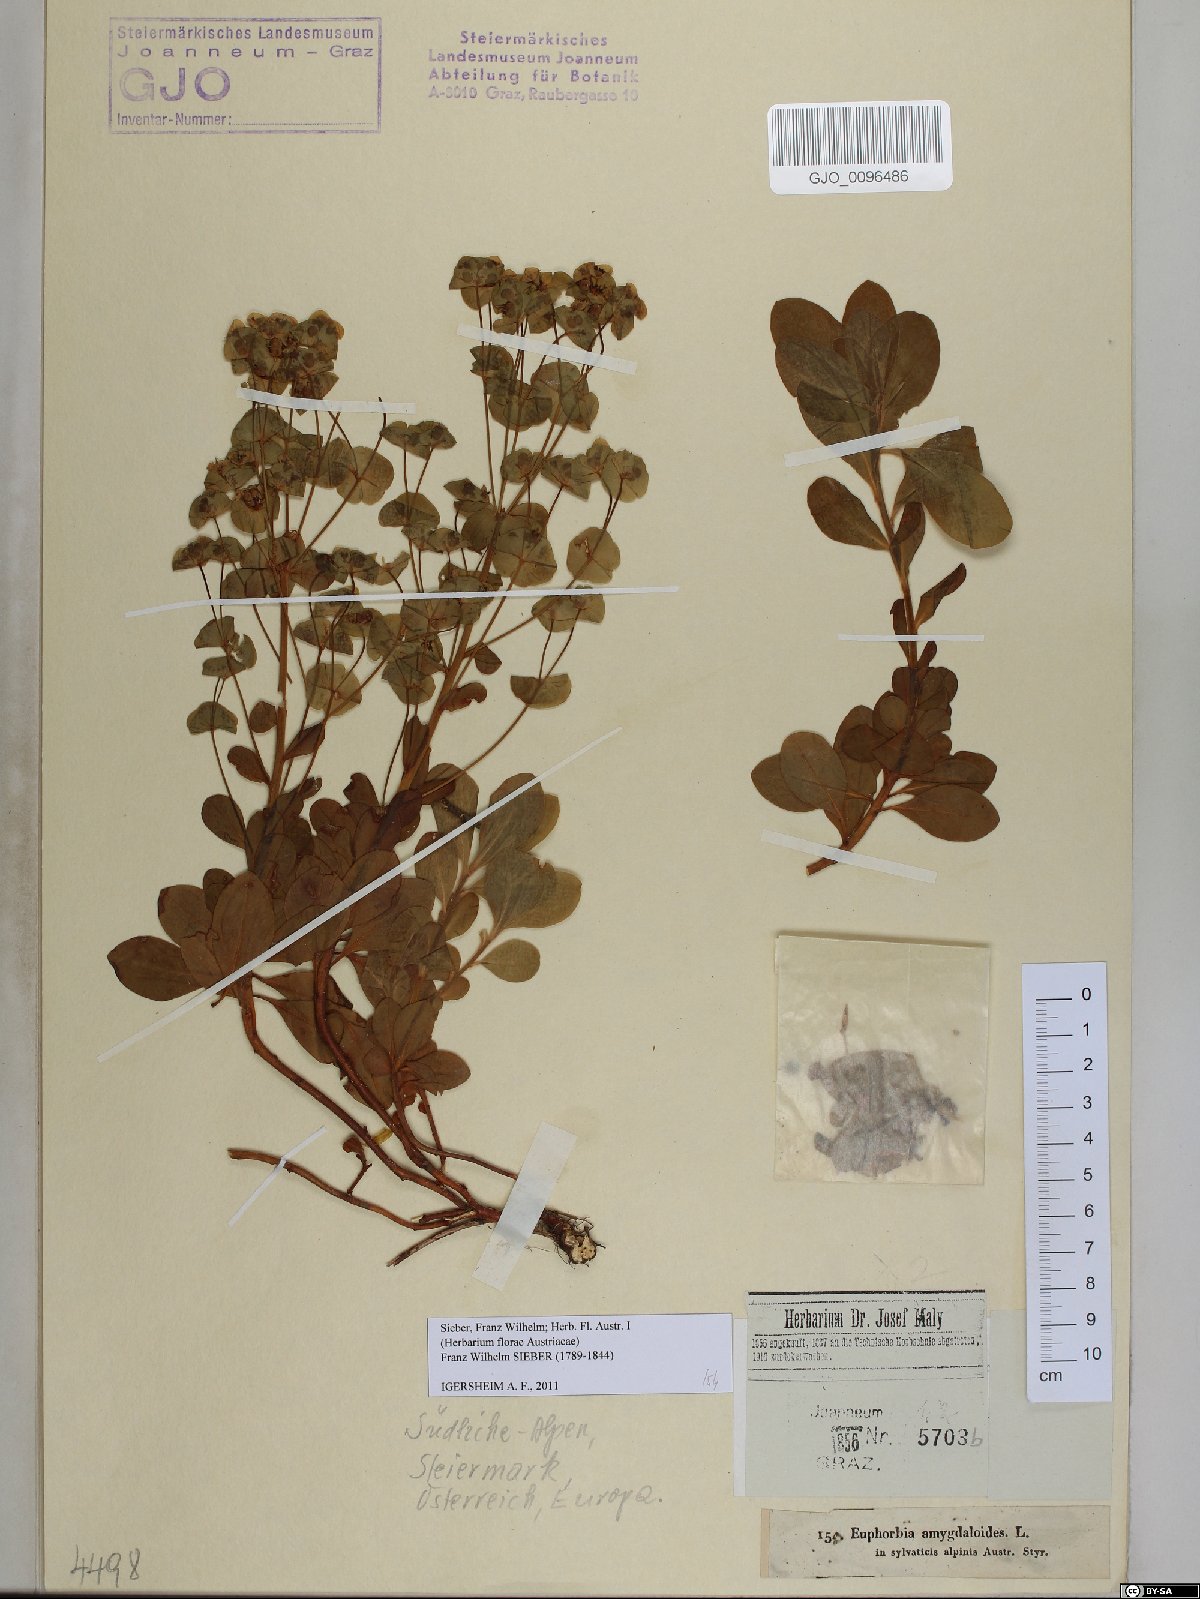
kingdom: Plantae
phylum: Tracheophyta
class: Magnoliopsida
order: Malpighiales
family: Euphorbiaceae
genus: Euphorbia
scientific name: Euphorbia amygdaloides
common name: Wood spurge
